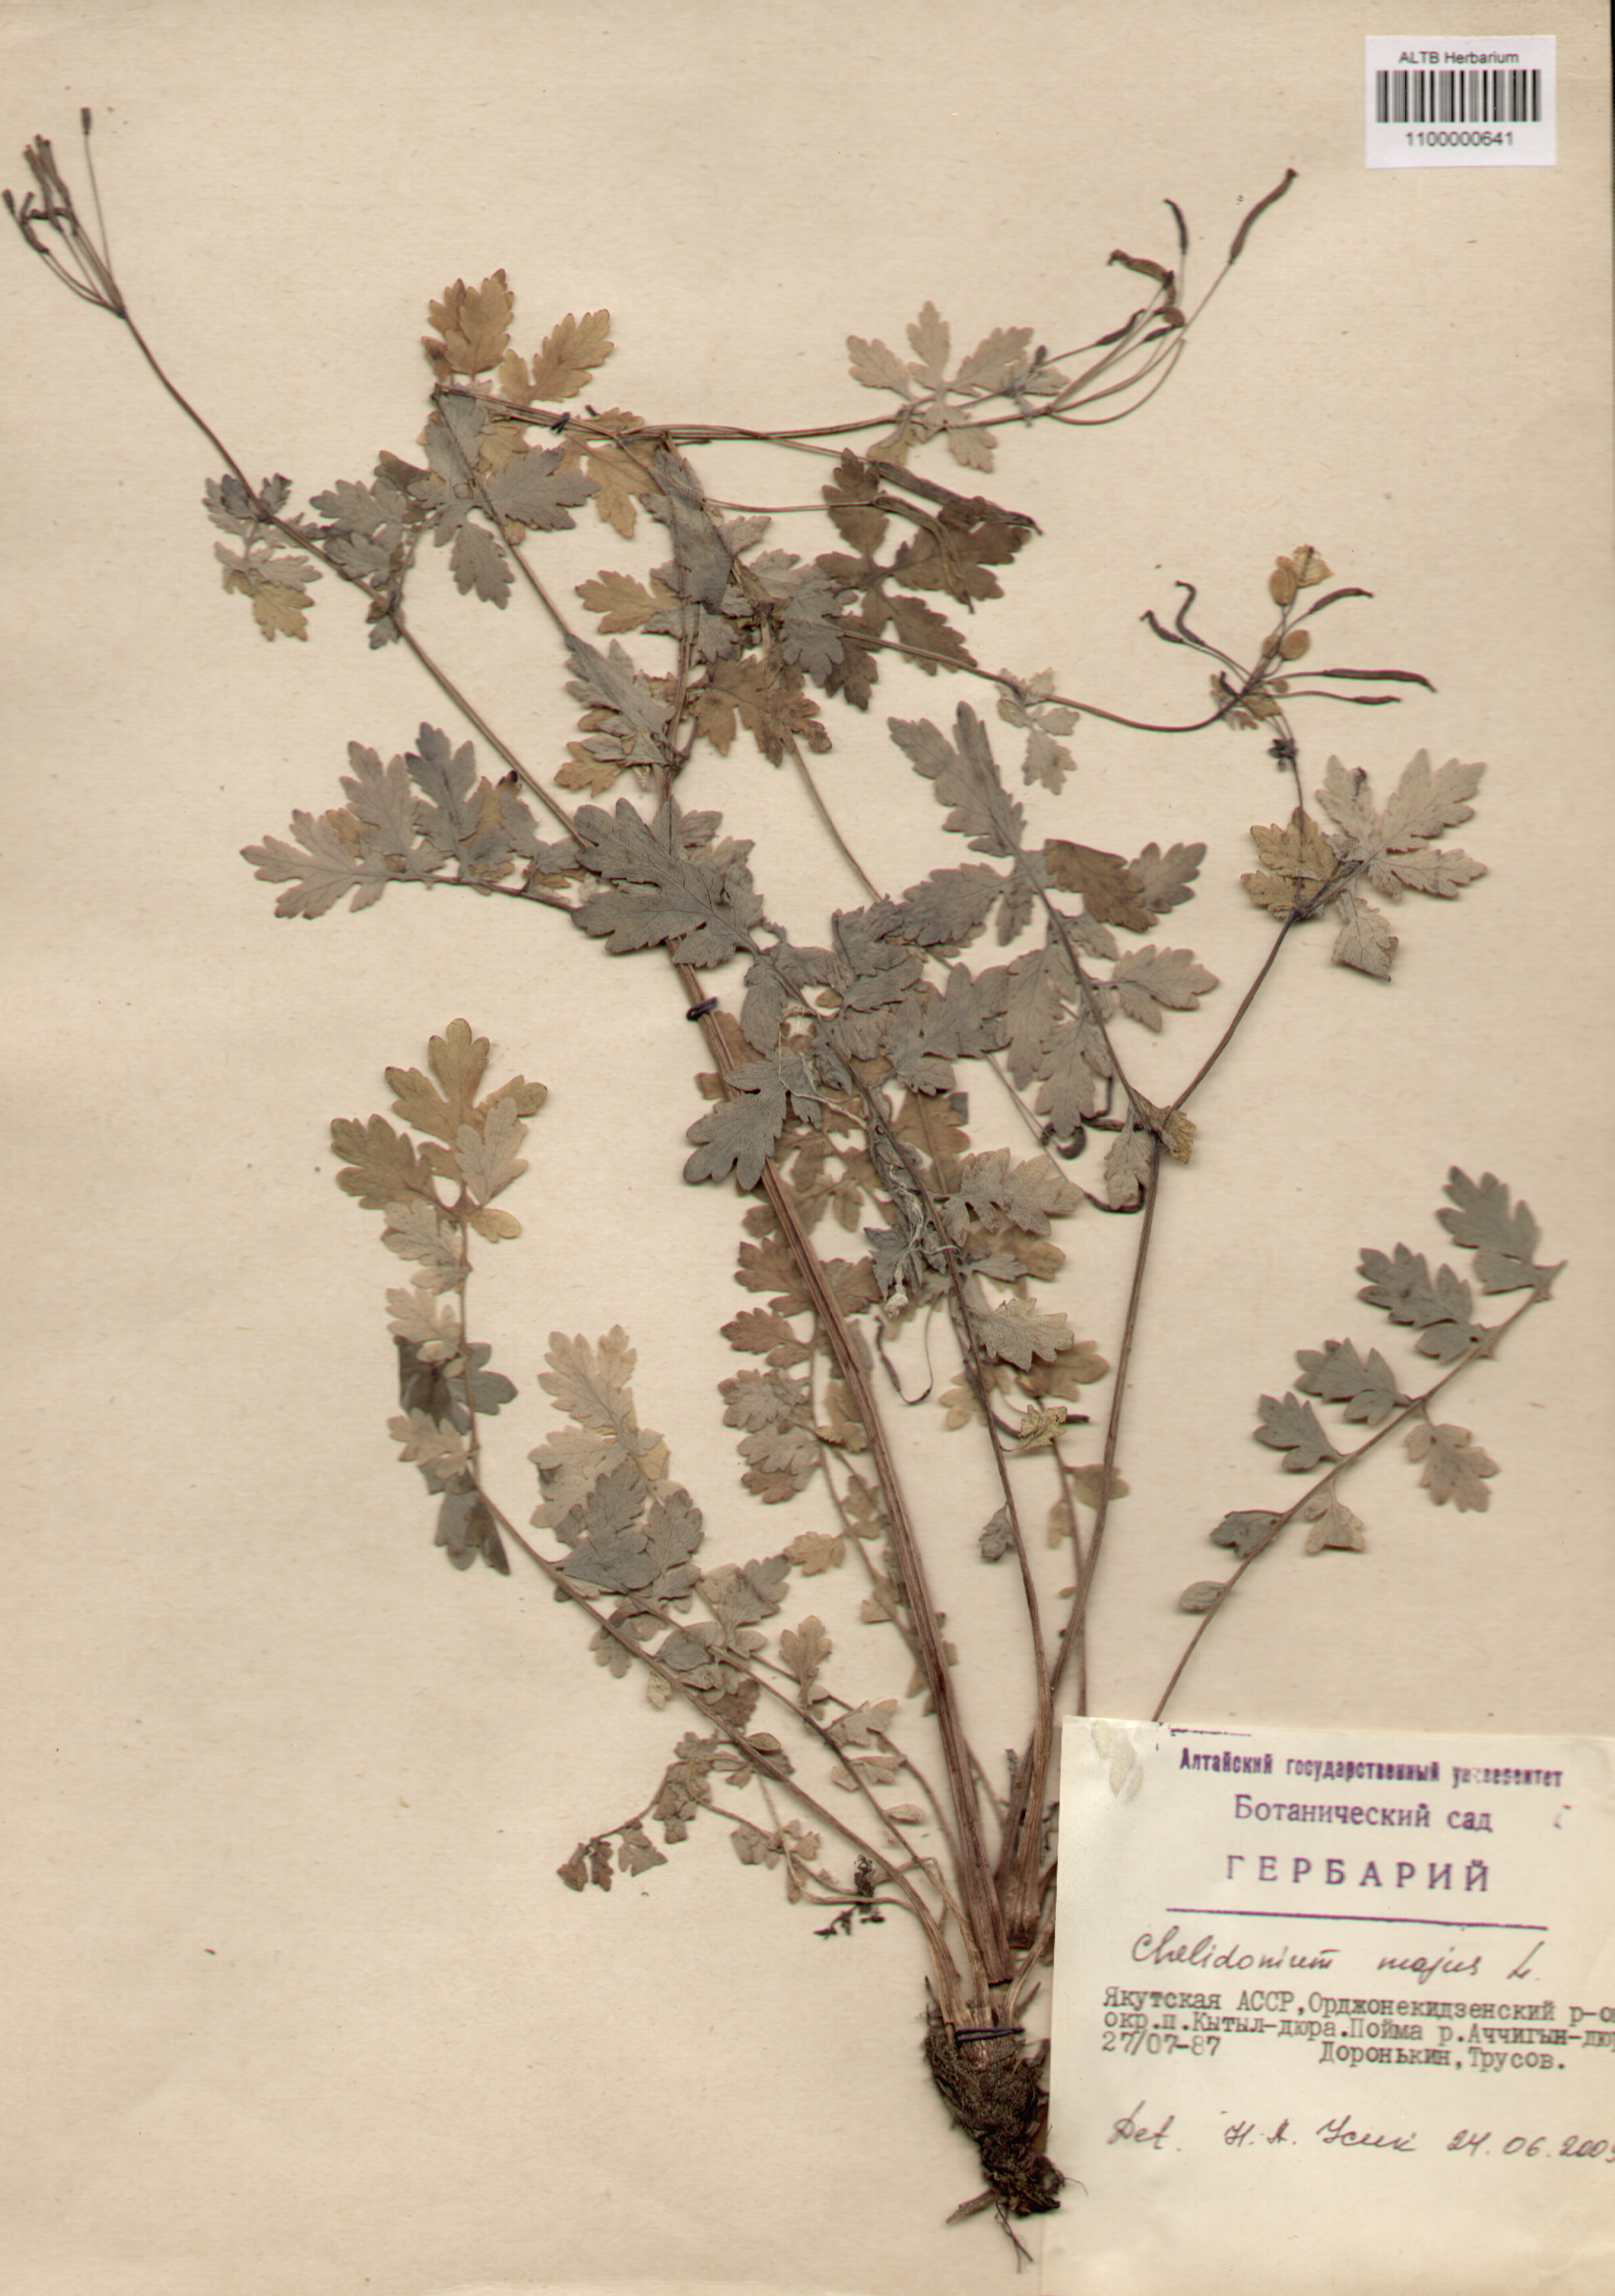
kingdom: Plantae
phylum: Tracheophyta
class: Magnoliopsida
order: Ranunculales
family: Papaveraceae
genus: Chelidonium
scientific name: Chelidonium majus
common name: Greater celandine
